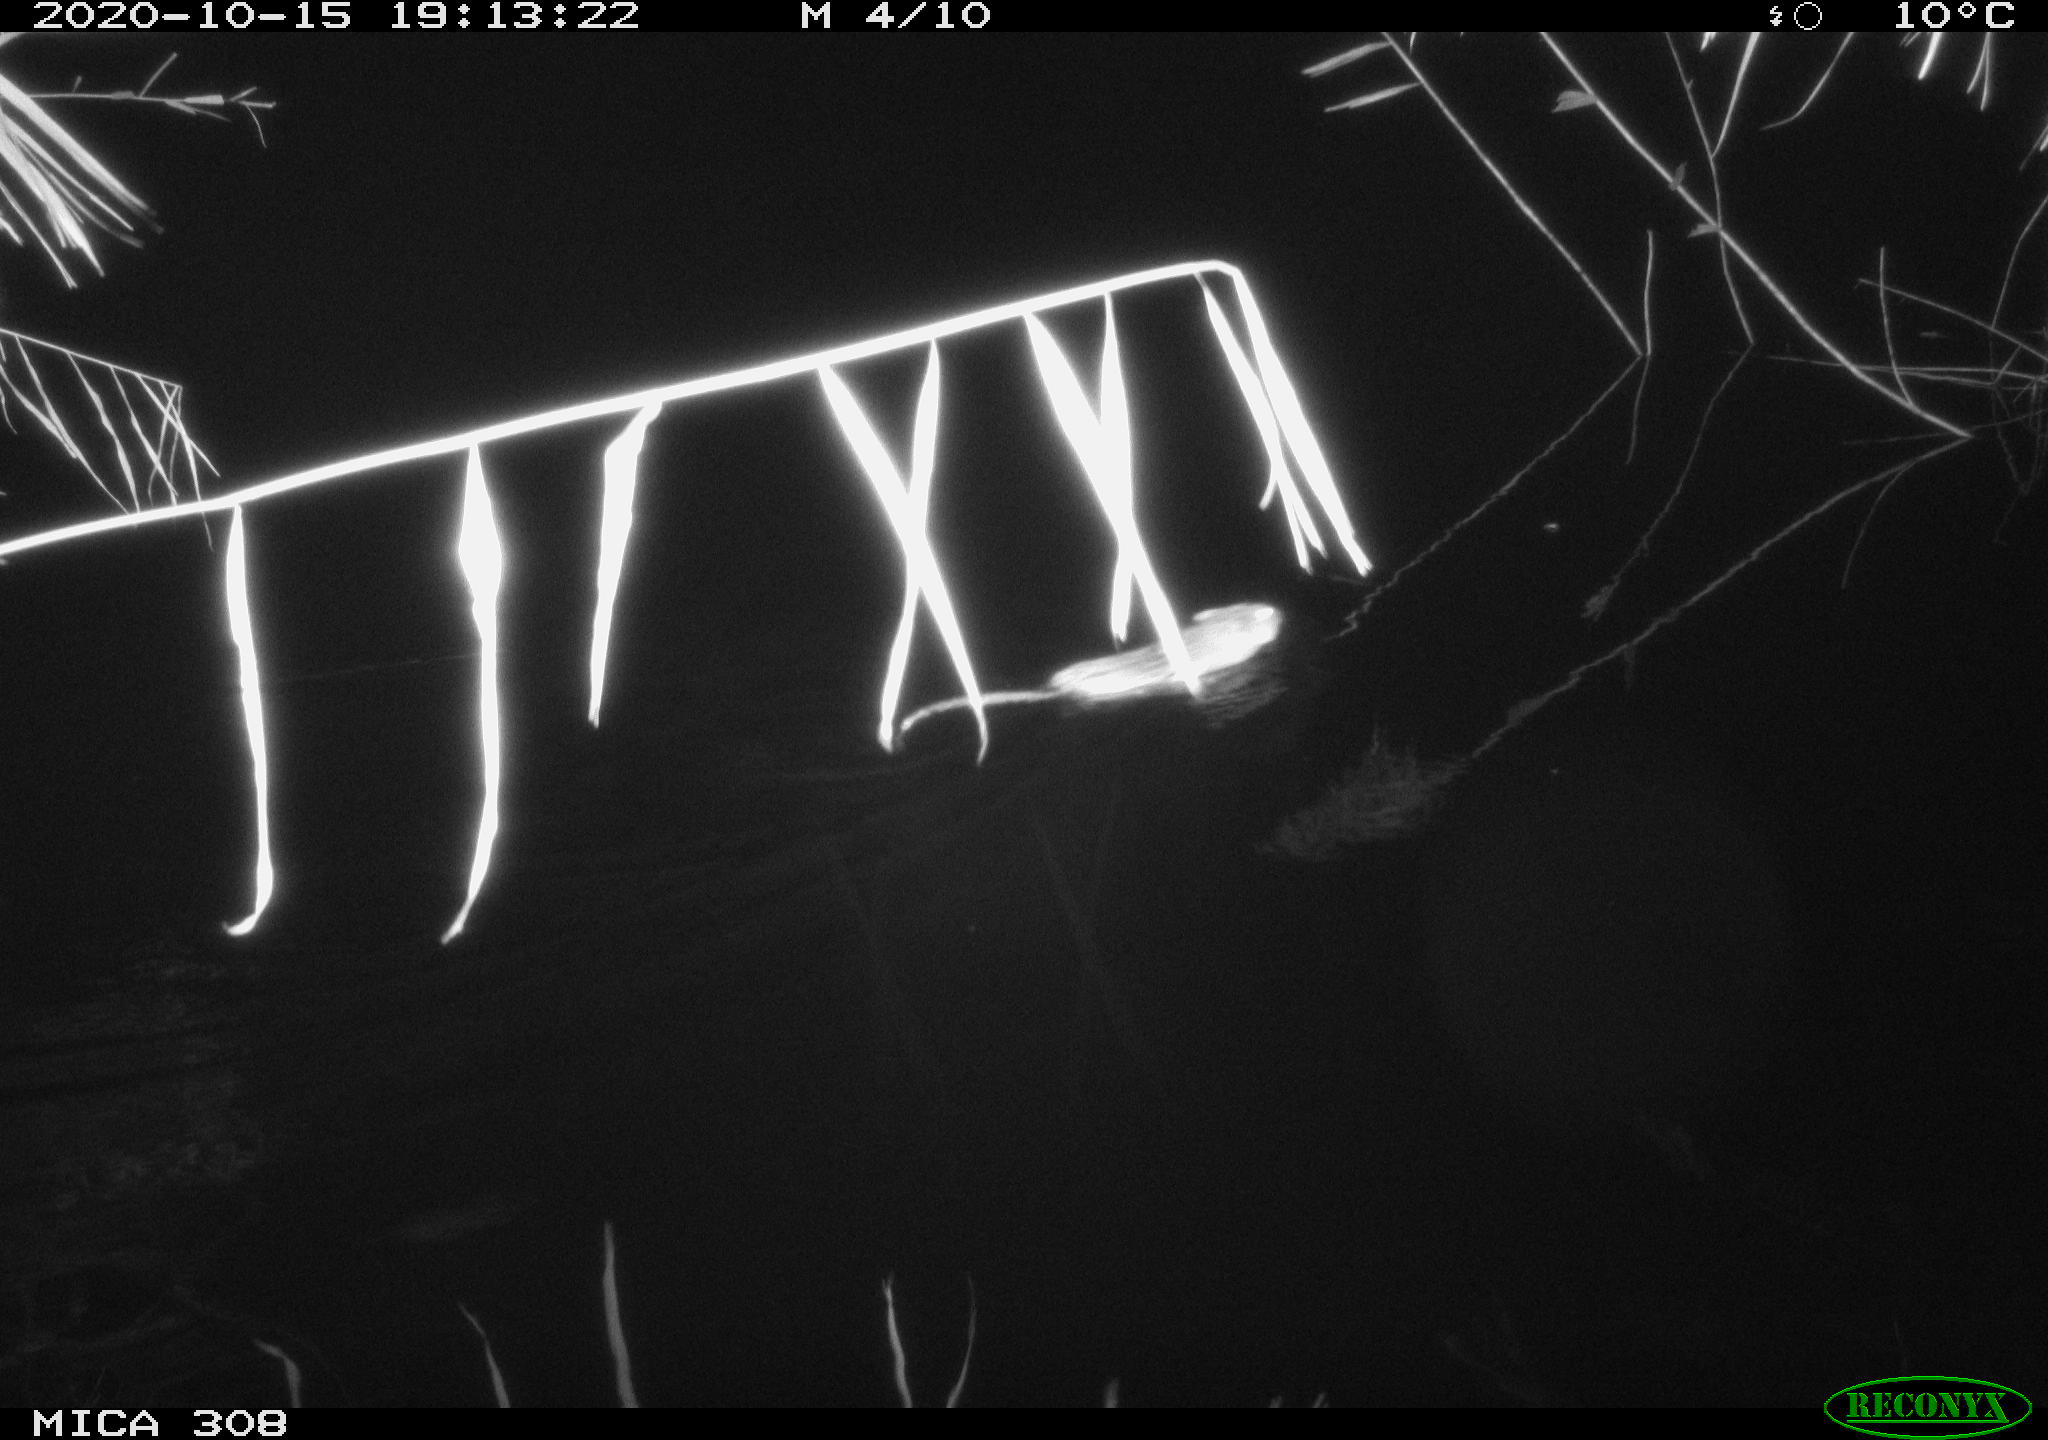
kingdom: Animalia
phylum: Chordata
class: Mammalia
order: Rodentia
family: Cricetidae
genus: Ondatra
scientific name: Ondatra zibethicus
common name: Muskrat
